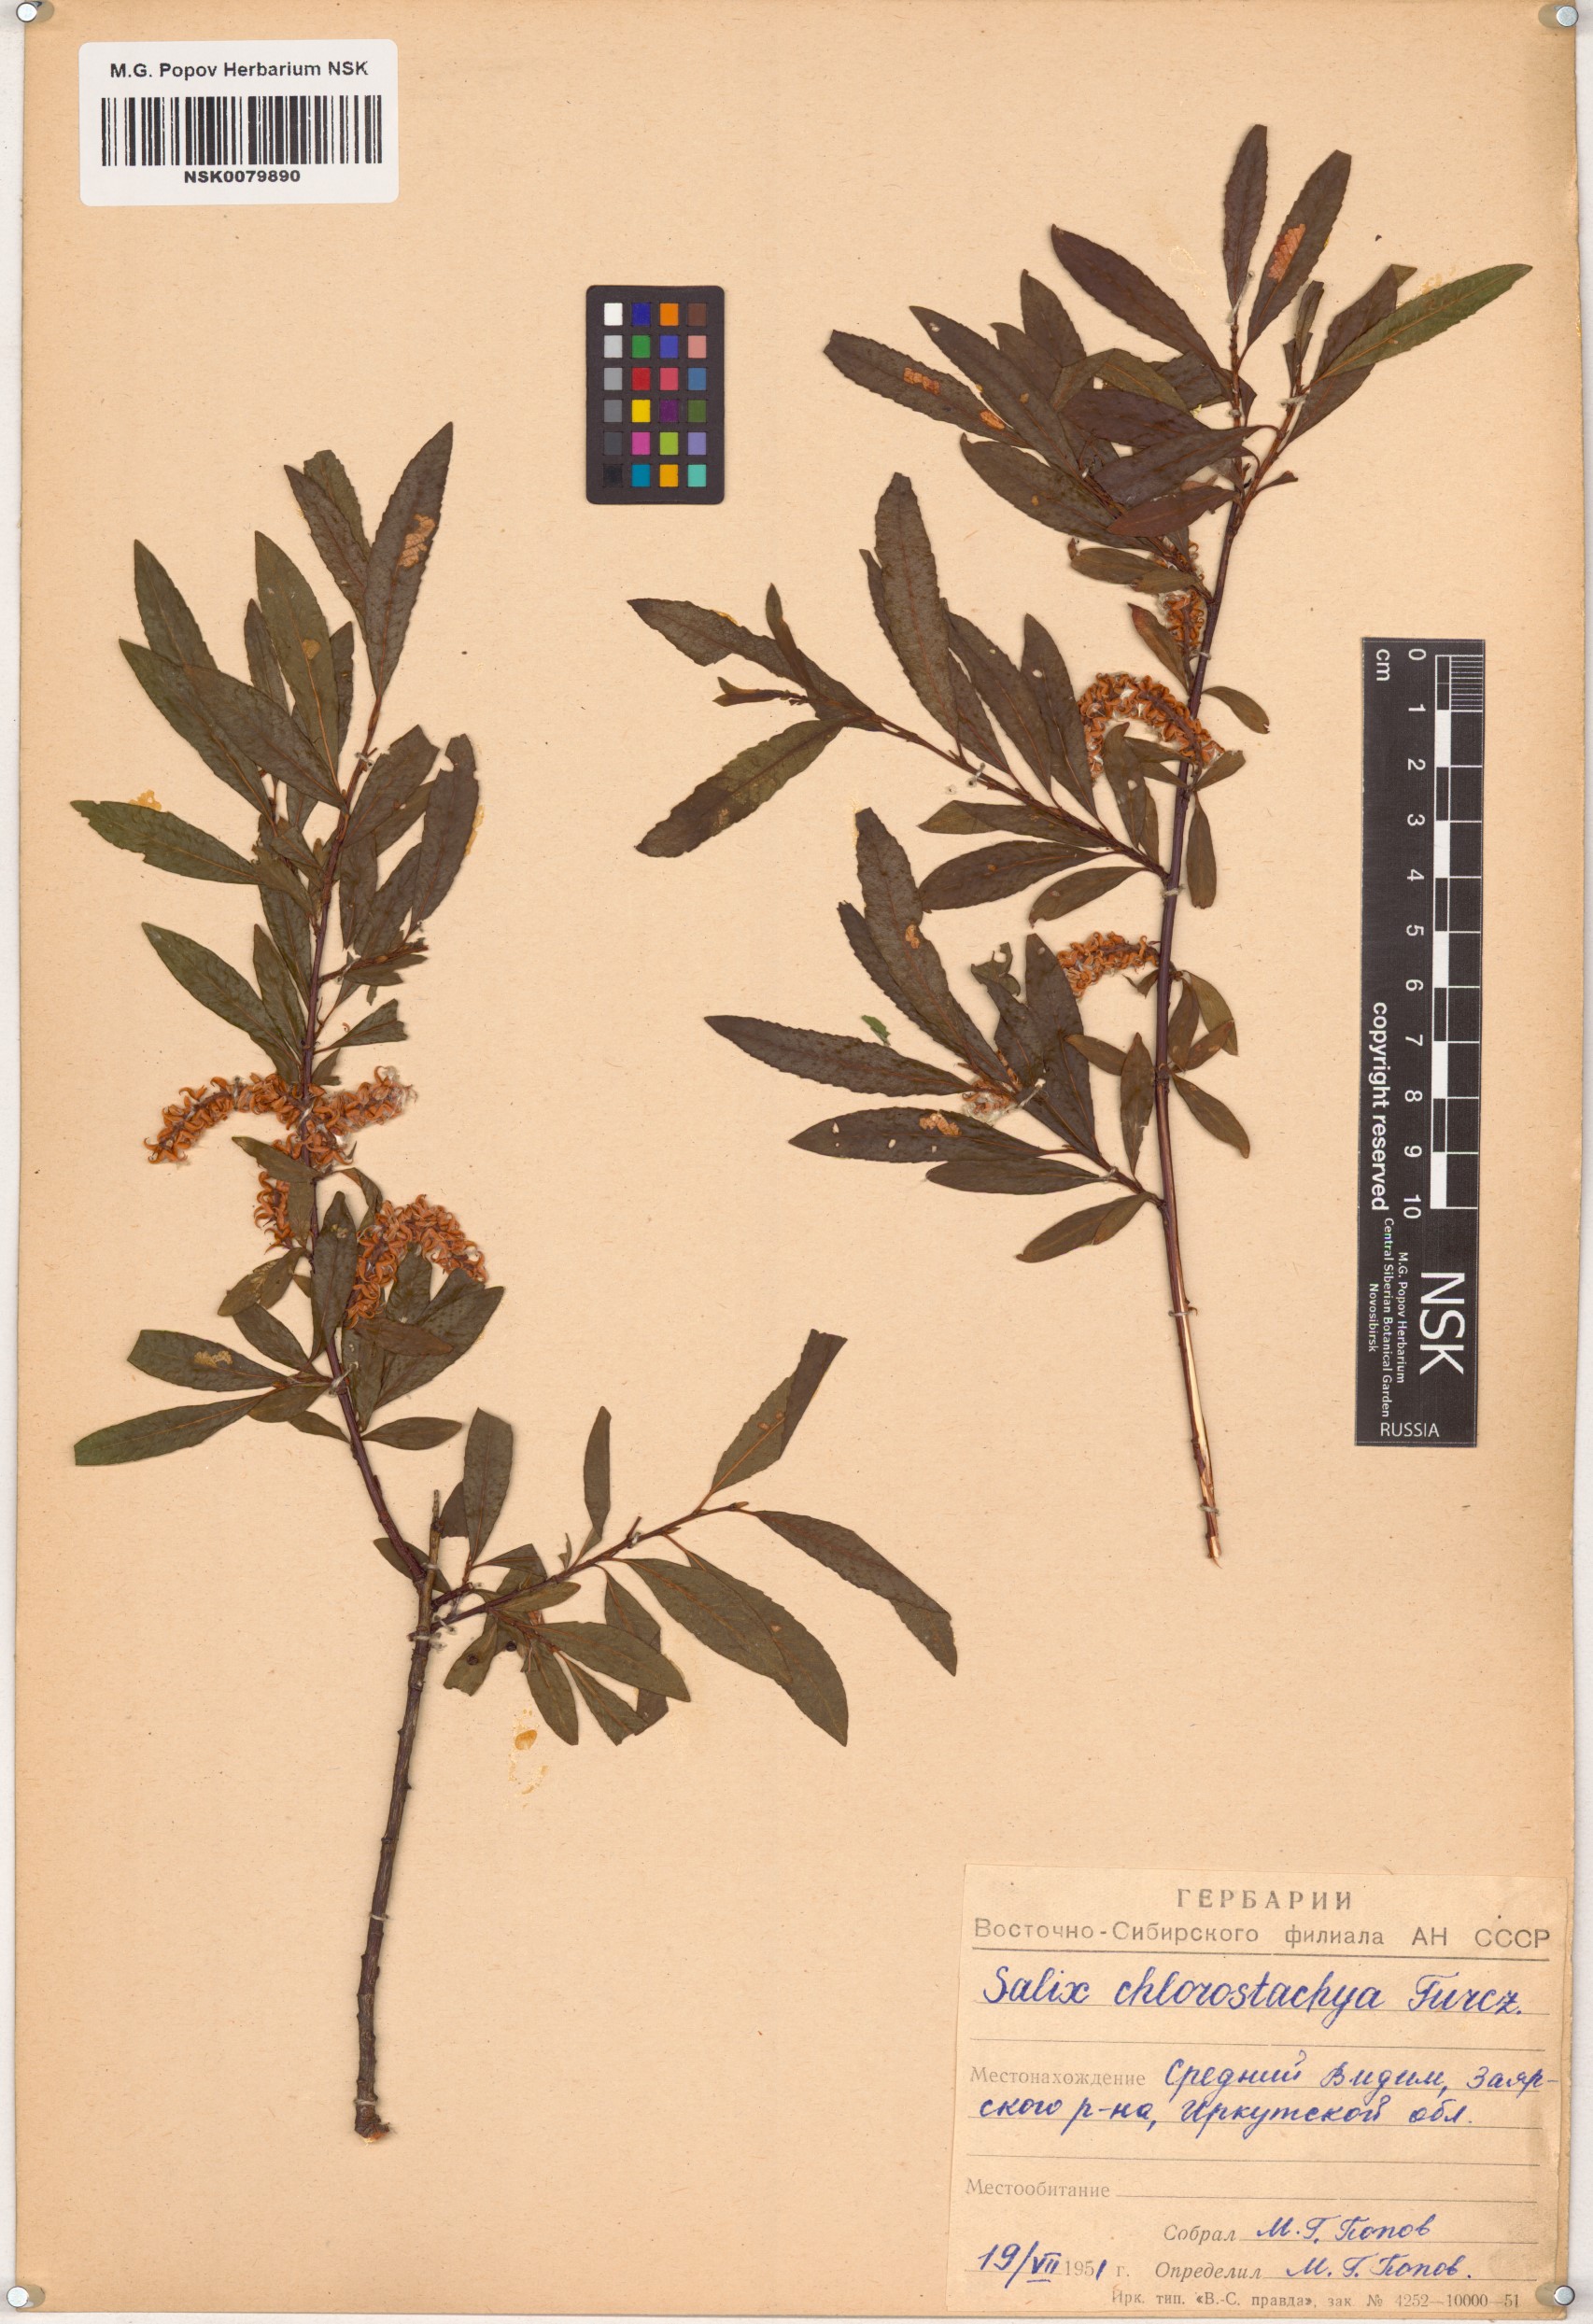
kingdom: Plantae
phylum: Tracheophyta
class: Magnoliopsida
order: Malpighiales
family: Salicaceae
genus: Salix
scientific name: Salix rhamnifolia
